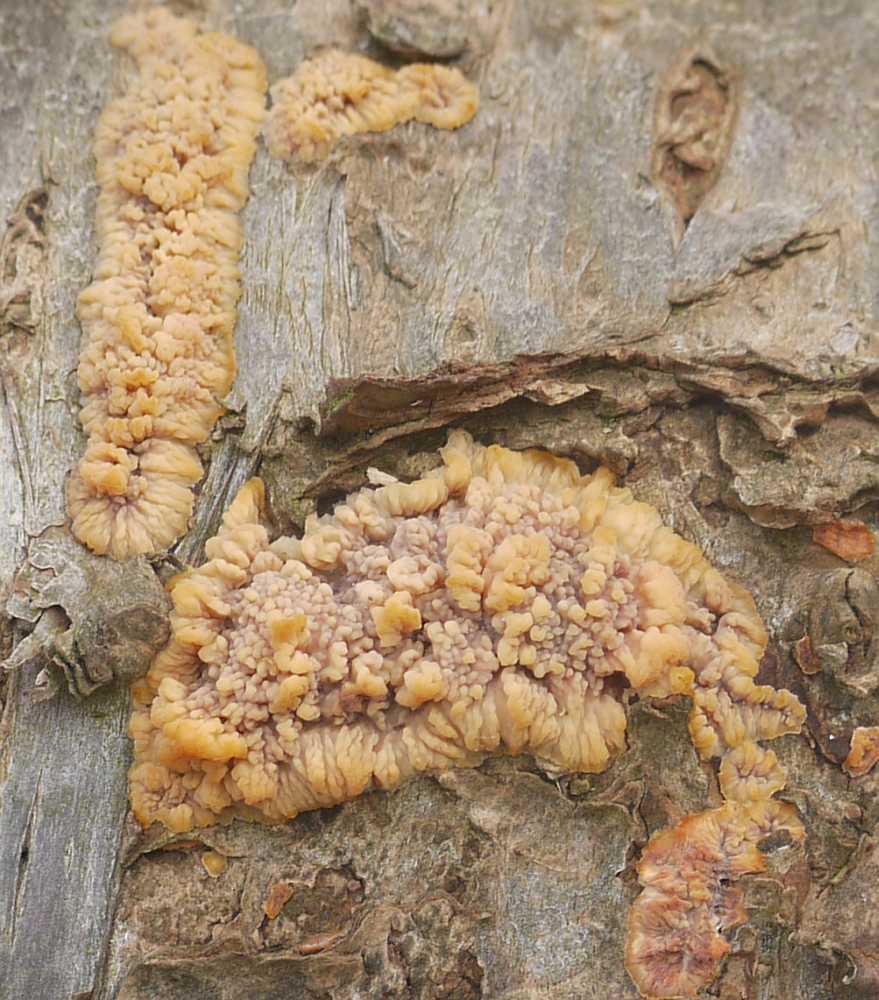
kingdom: Fungi
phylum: Basidiomycota
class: Agaricomycetes
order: Polyporales
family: Meruliaceae
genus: Phlebia
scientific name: Phlebia radiata
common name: stråle-åresvamp
